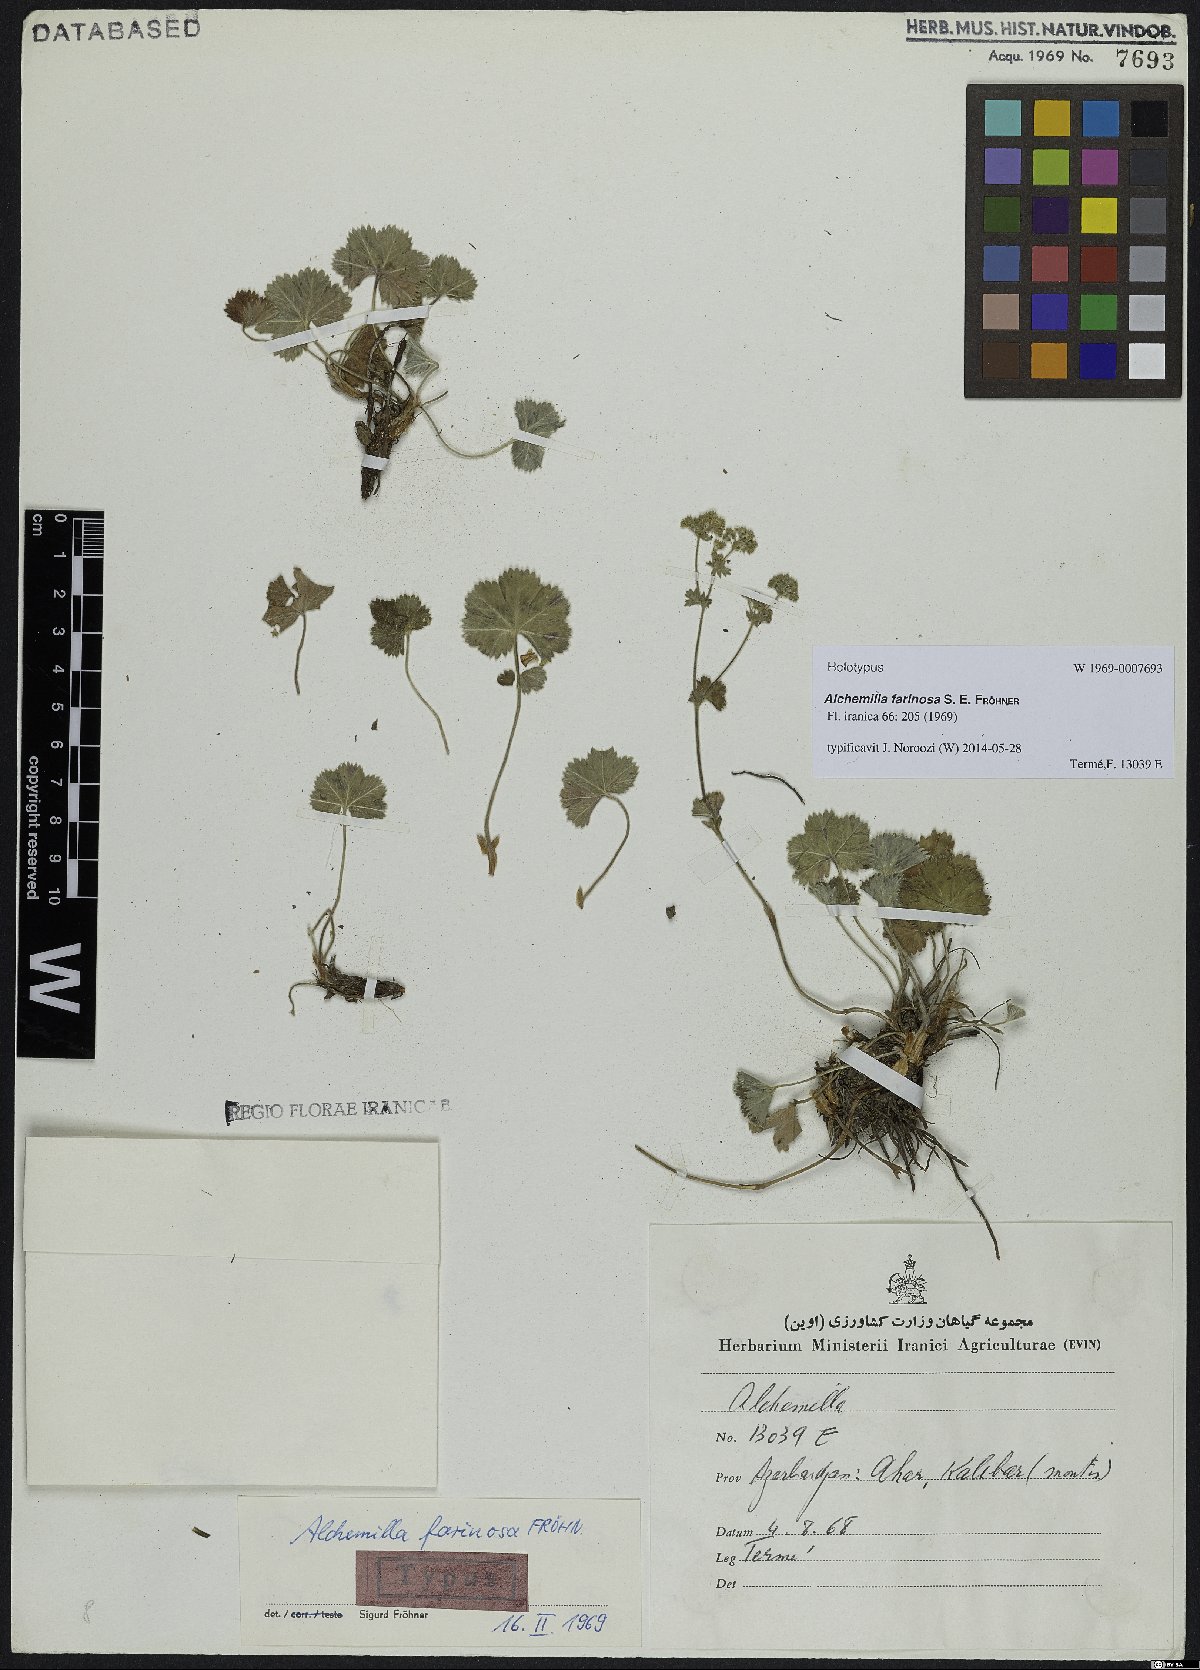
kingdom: Plantae
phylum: Tracheophyta
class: Magnoliopsida
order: Rosales
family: Rosaceae
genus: Alchemilla
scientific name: Alchemilla farinosa
